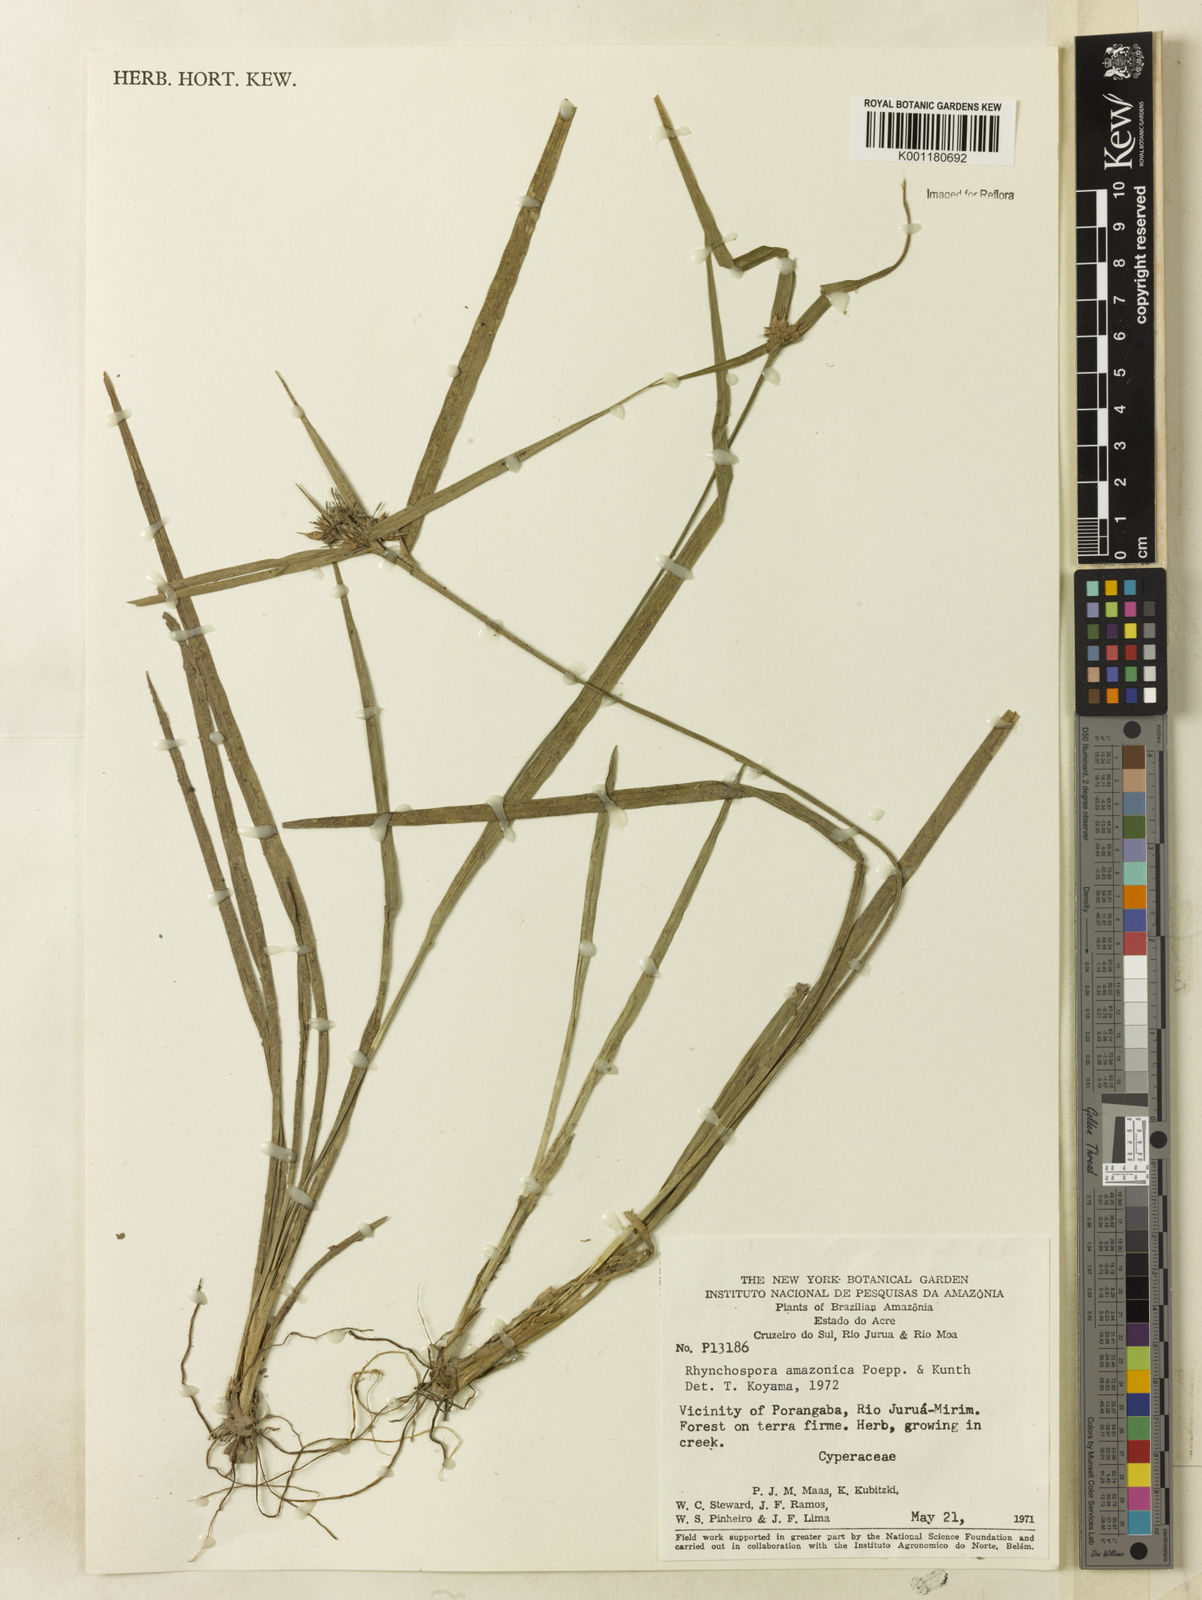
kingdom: Plantae
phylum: Tracheophyta
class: Liliopsida
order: Poales
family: Cyperaceae
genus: Rhynchospora
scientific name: Rhynchospora amazonica
